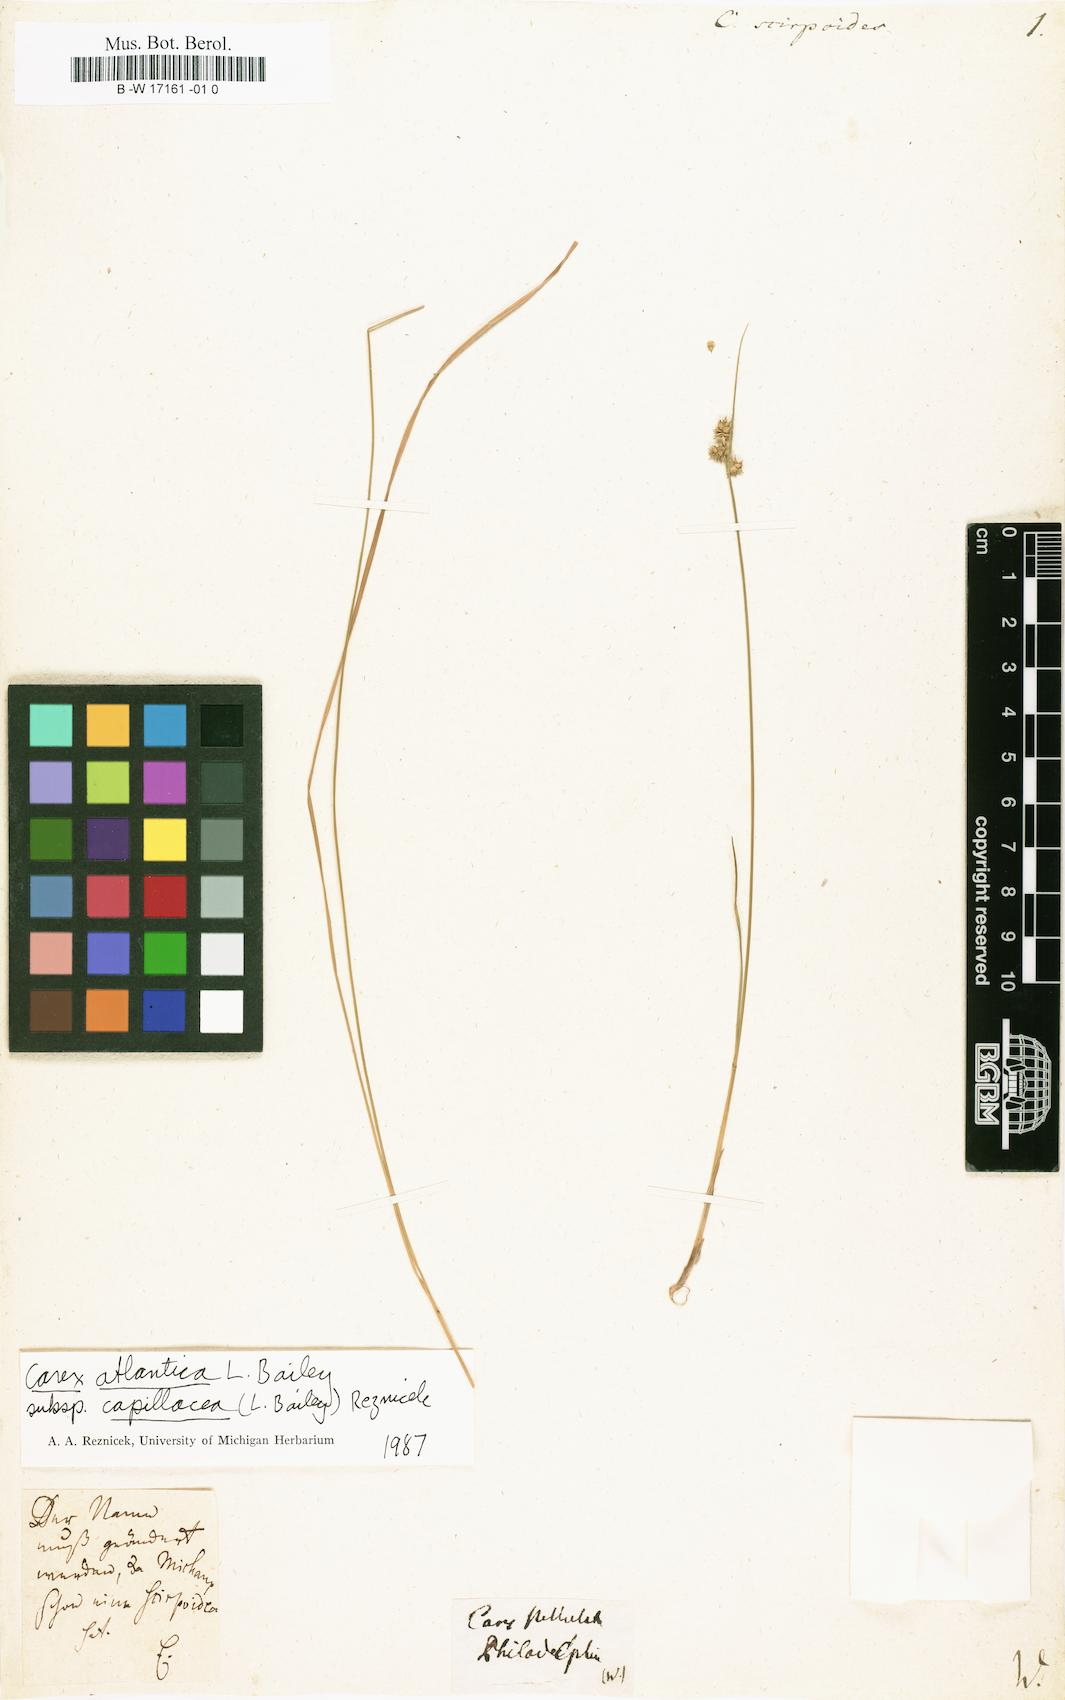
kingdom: Plantae
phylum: Tracheophyta
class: Liliopsida
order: Poales
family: Cyperaceae
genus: Carex
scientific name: Carex interior
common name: Inland sedge
